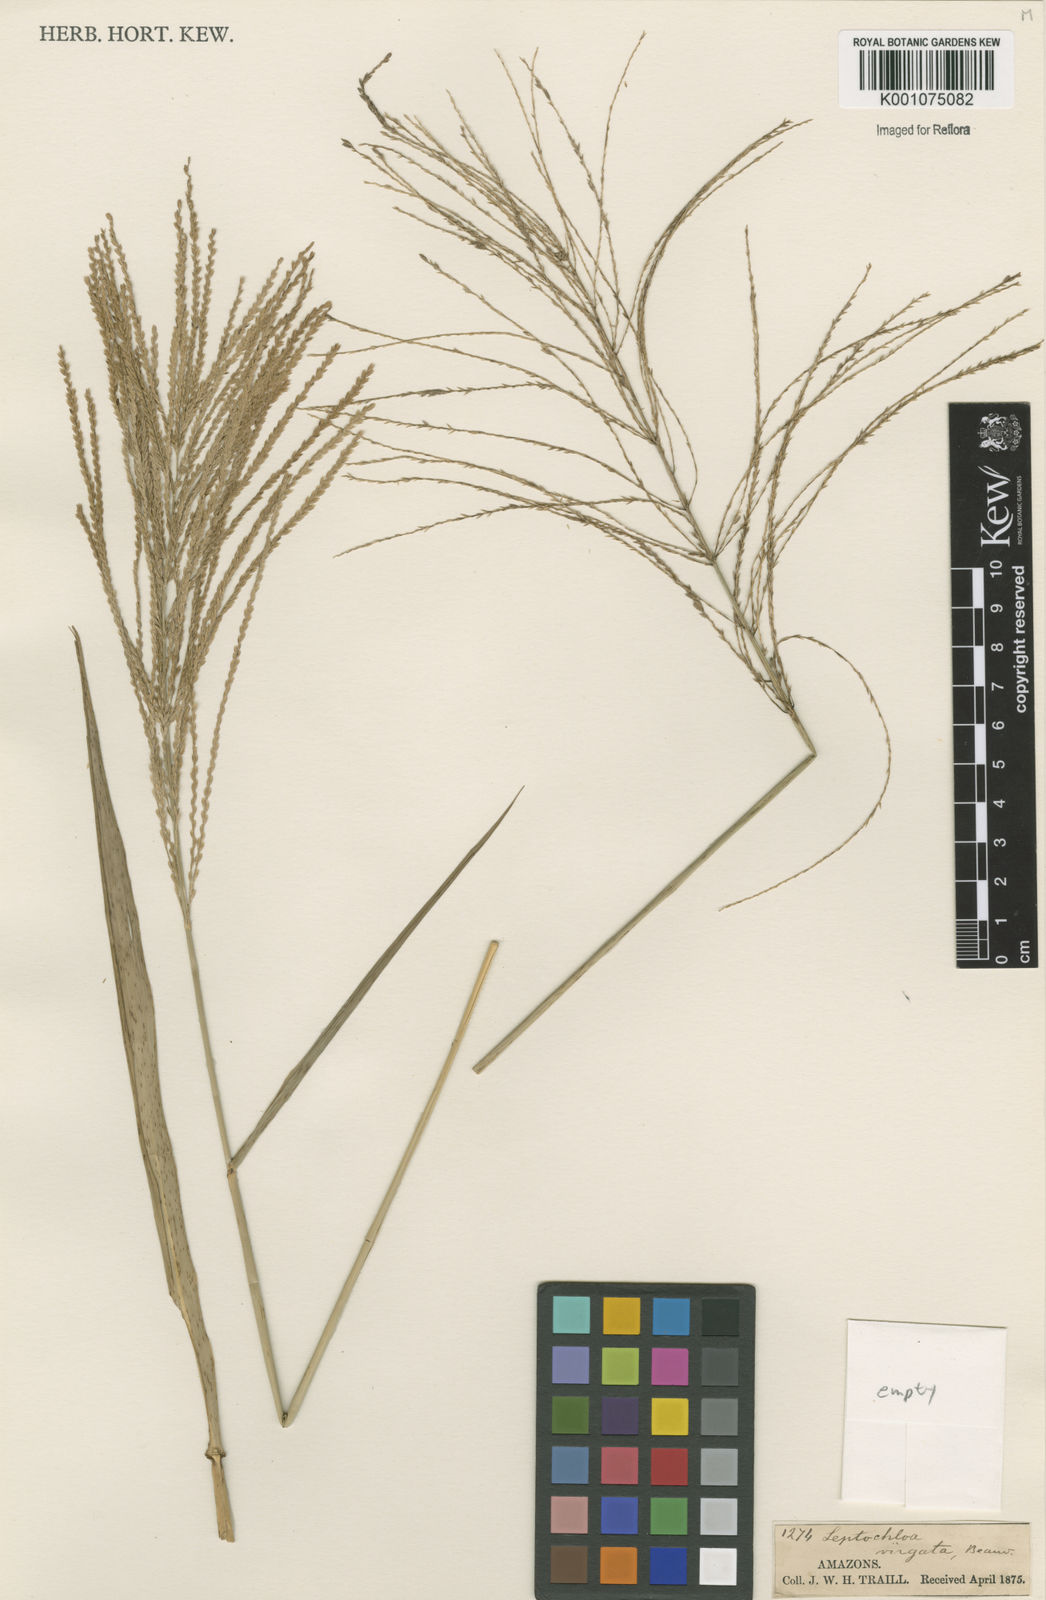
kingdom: Plantae
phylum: Tracheophyta
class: Liliopsida
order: Poales
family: Poaceae
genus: Leptochloa
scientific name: Leptochloa virgata
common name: Tropical sprangletop
